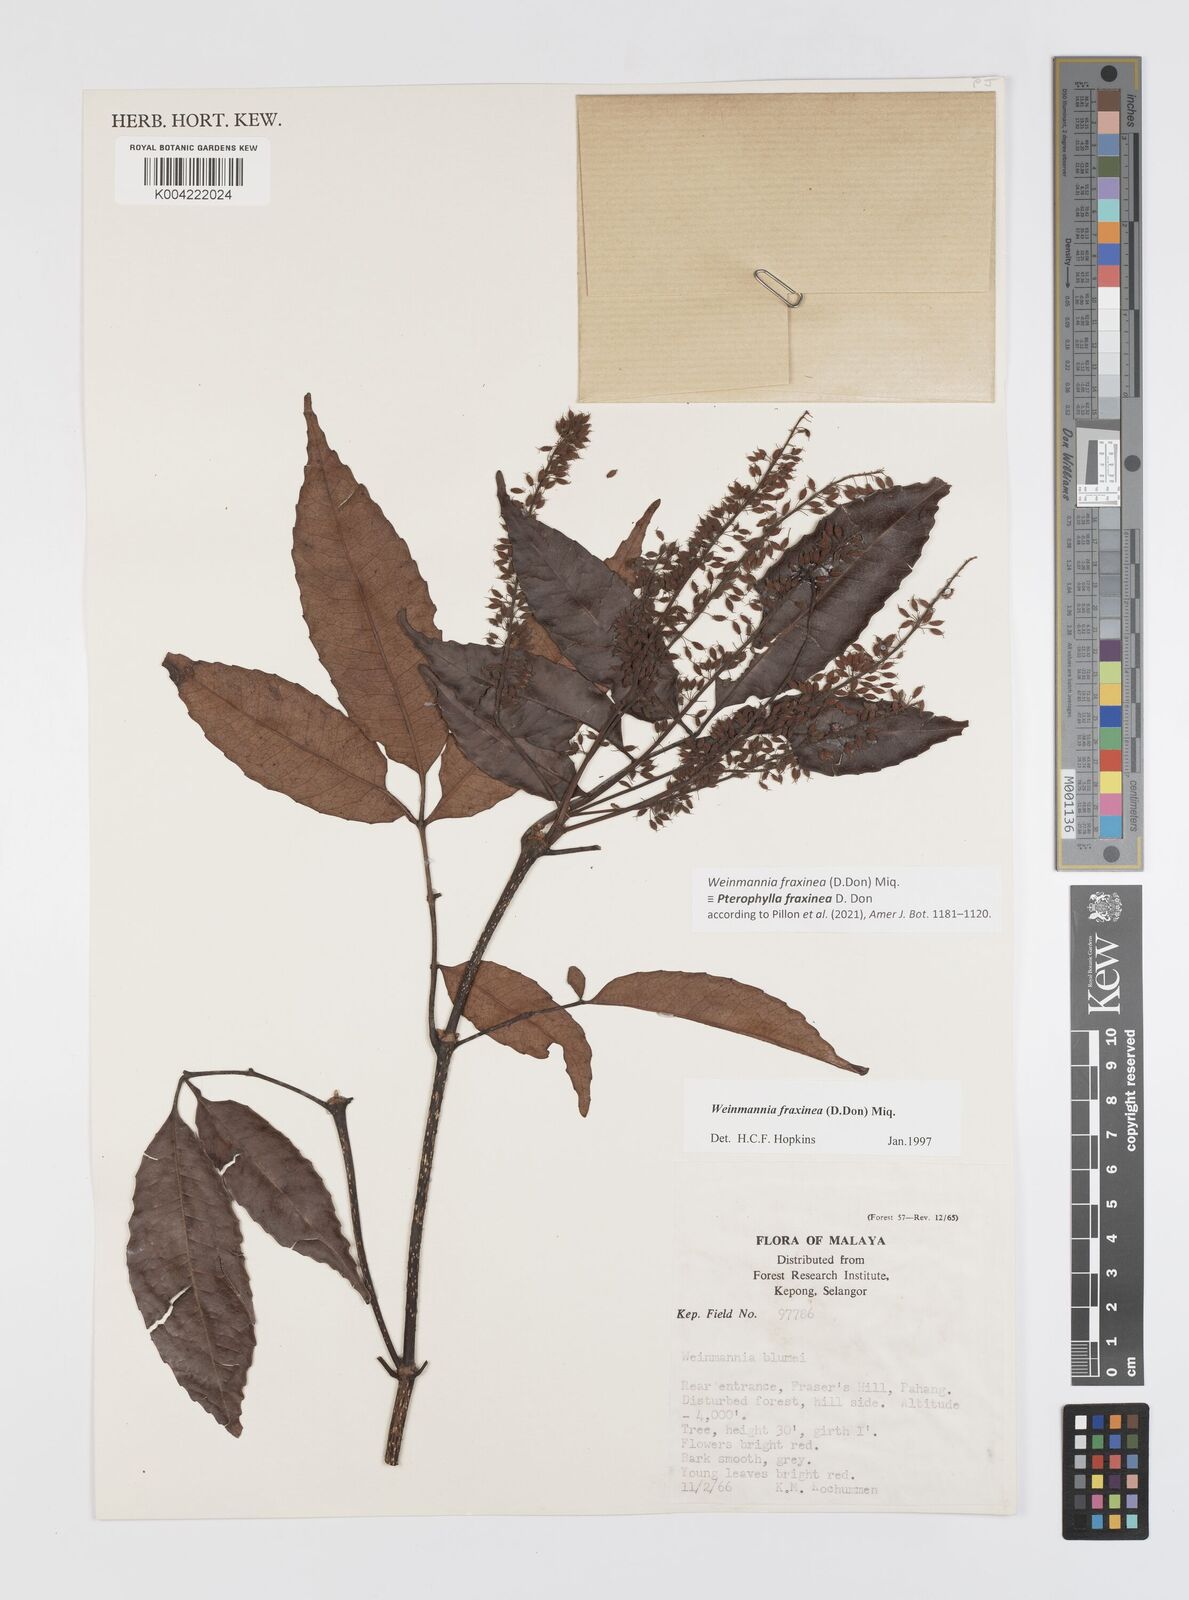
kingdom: Plantae
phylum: Tracheophyta
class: Magnoliopsida
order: Oxalidales
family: Cunoniaceae
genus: Pterophylla
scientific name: Pterophylla fraxinea
